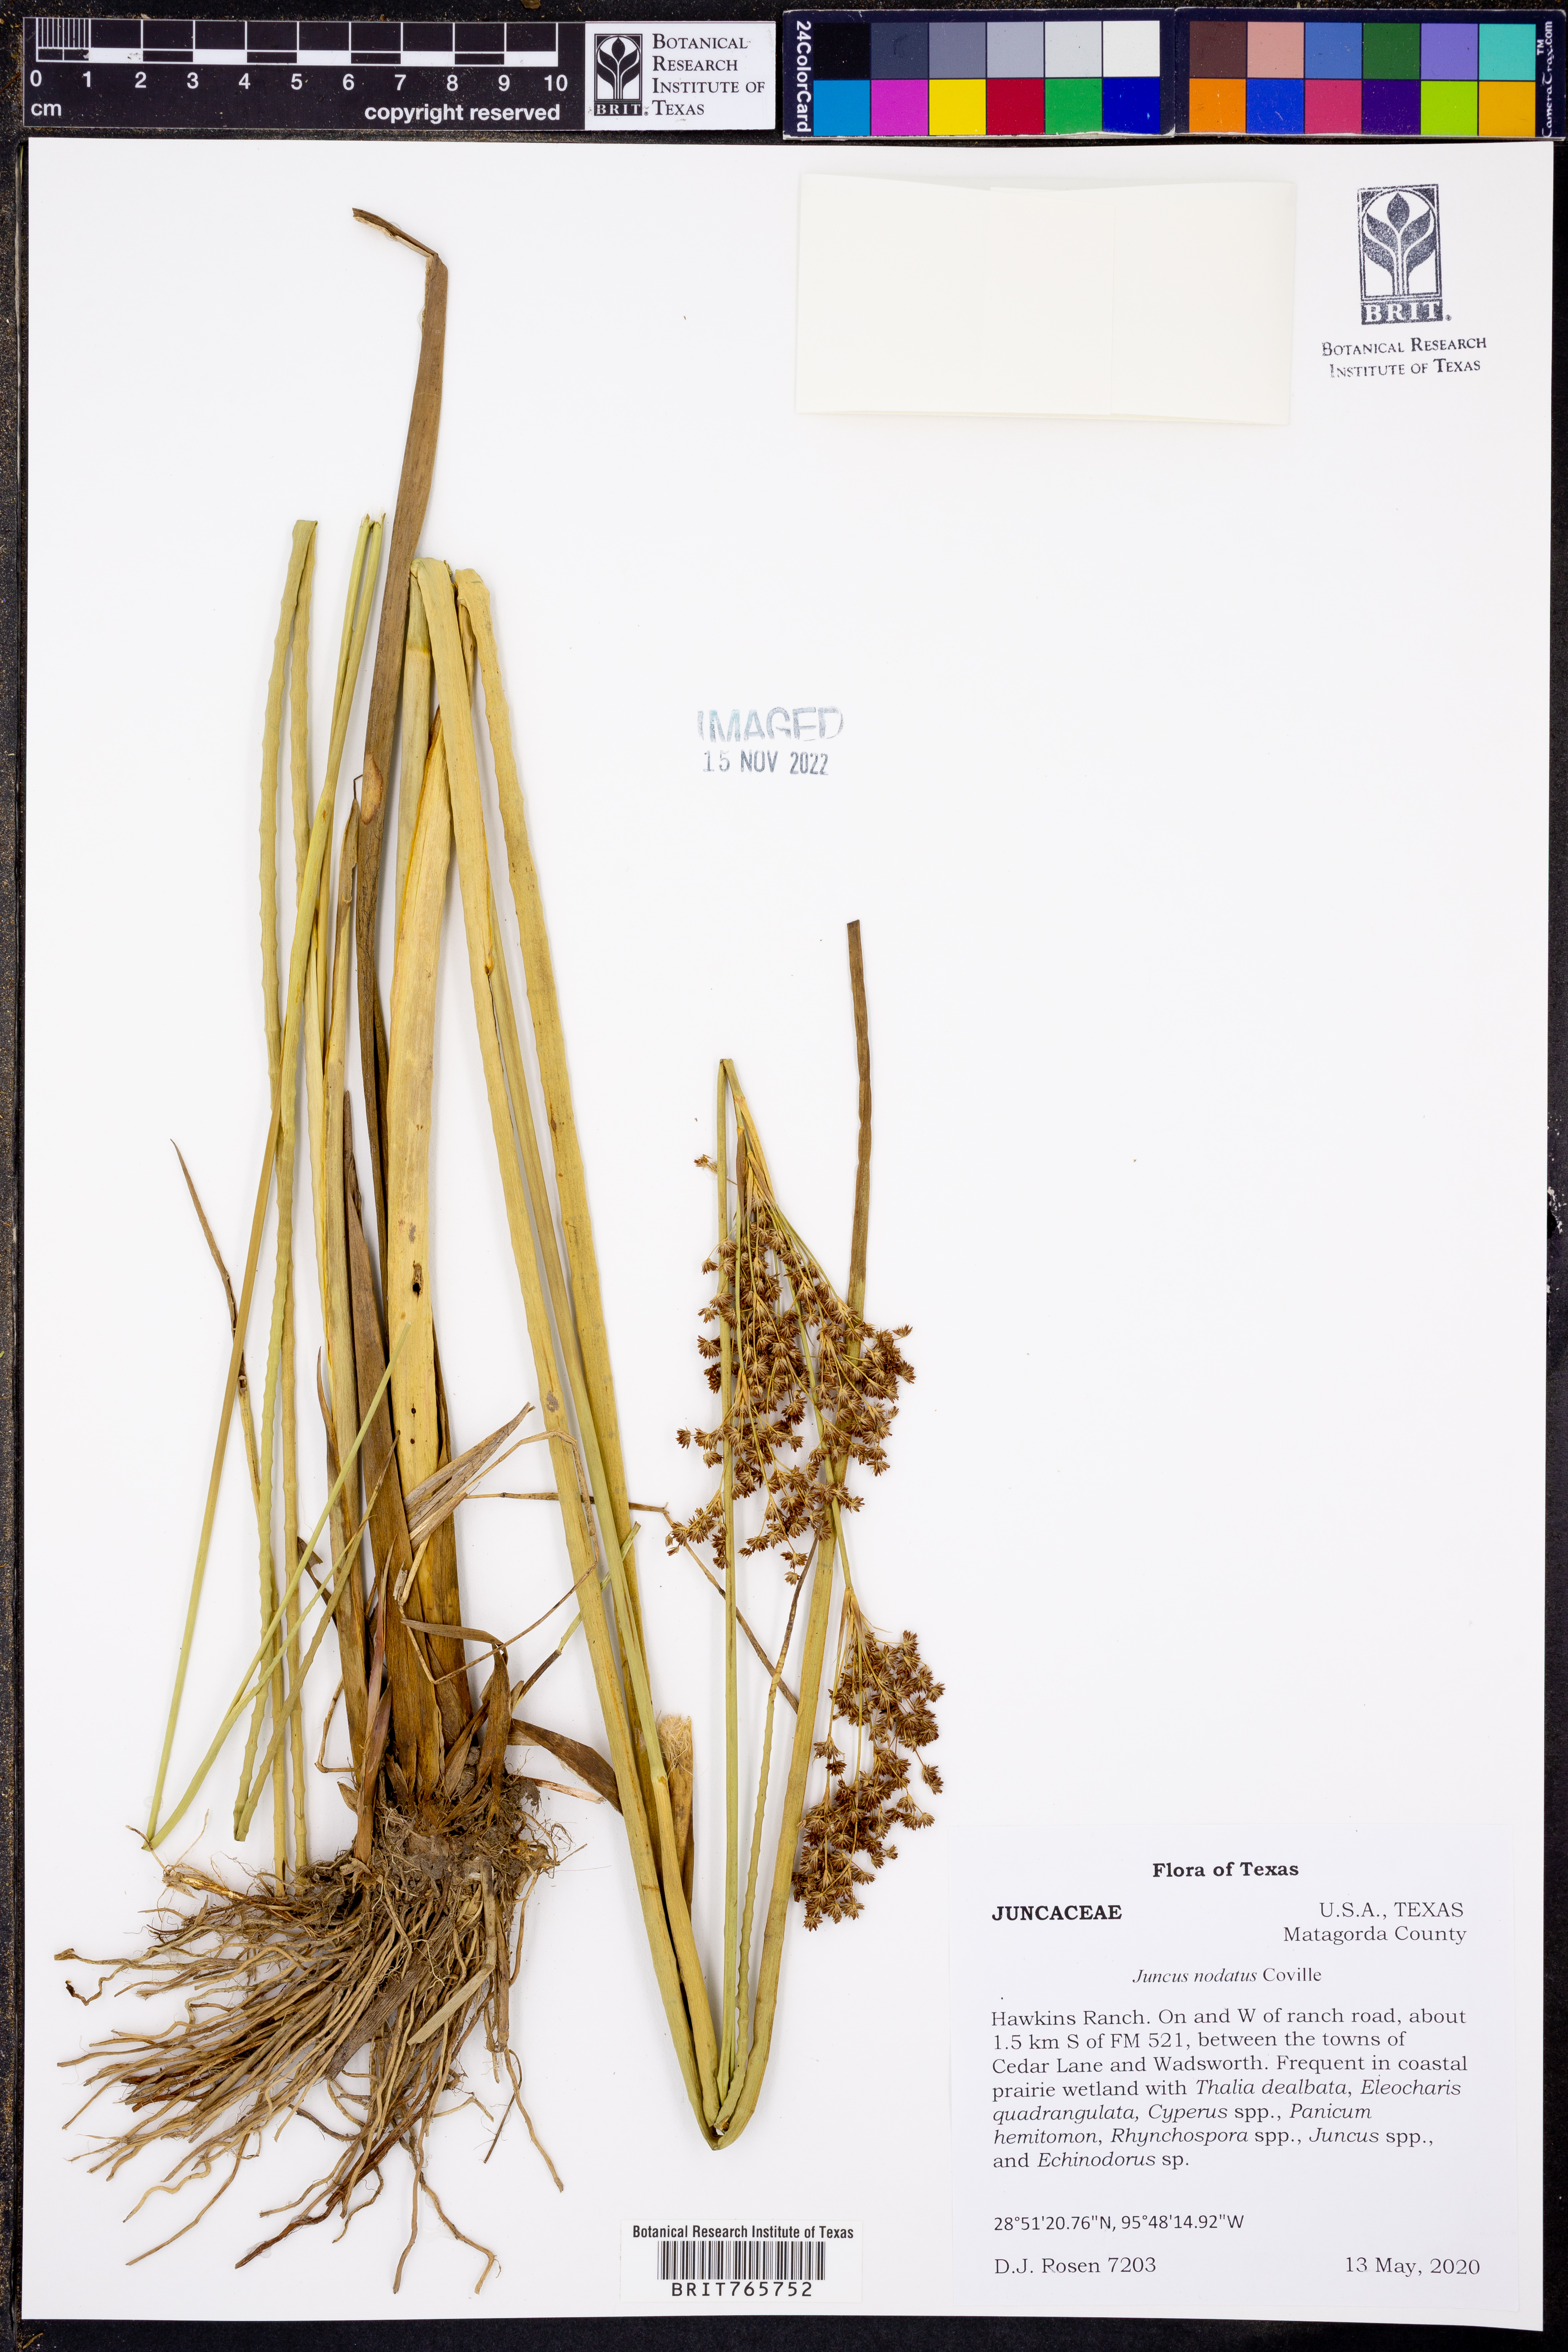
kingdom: Plantae
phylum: Tracheophyta
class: Liliopsida
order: Poales
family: Juncaceae
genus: Juncus
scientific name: Juncus nodatus
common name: Stout rush
